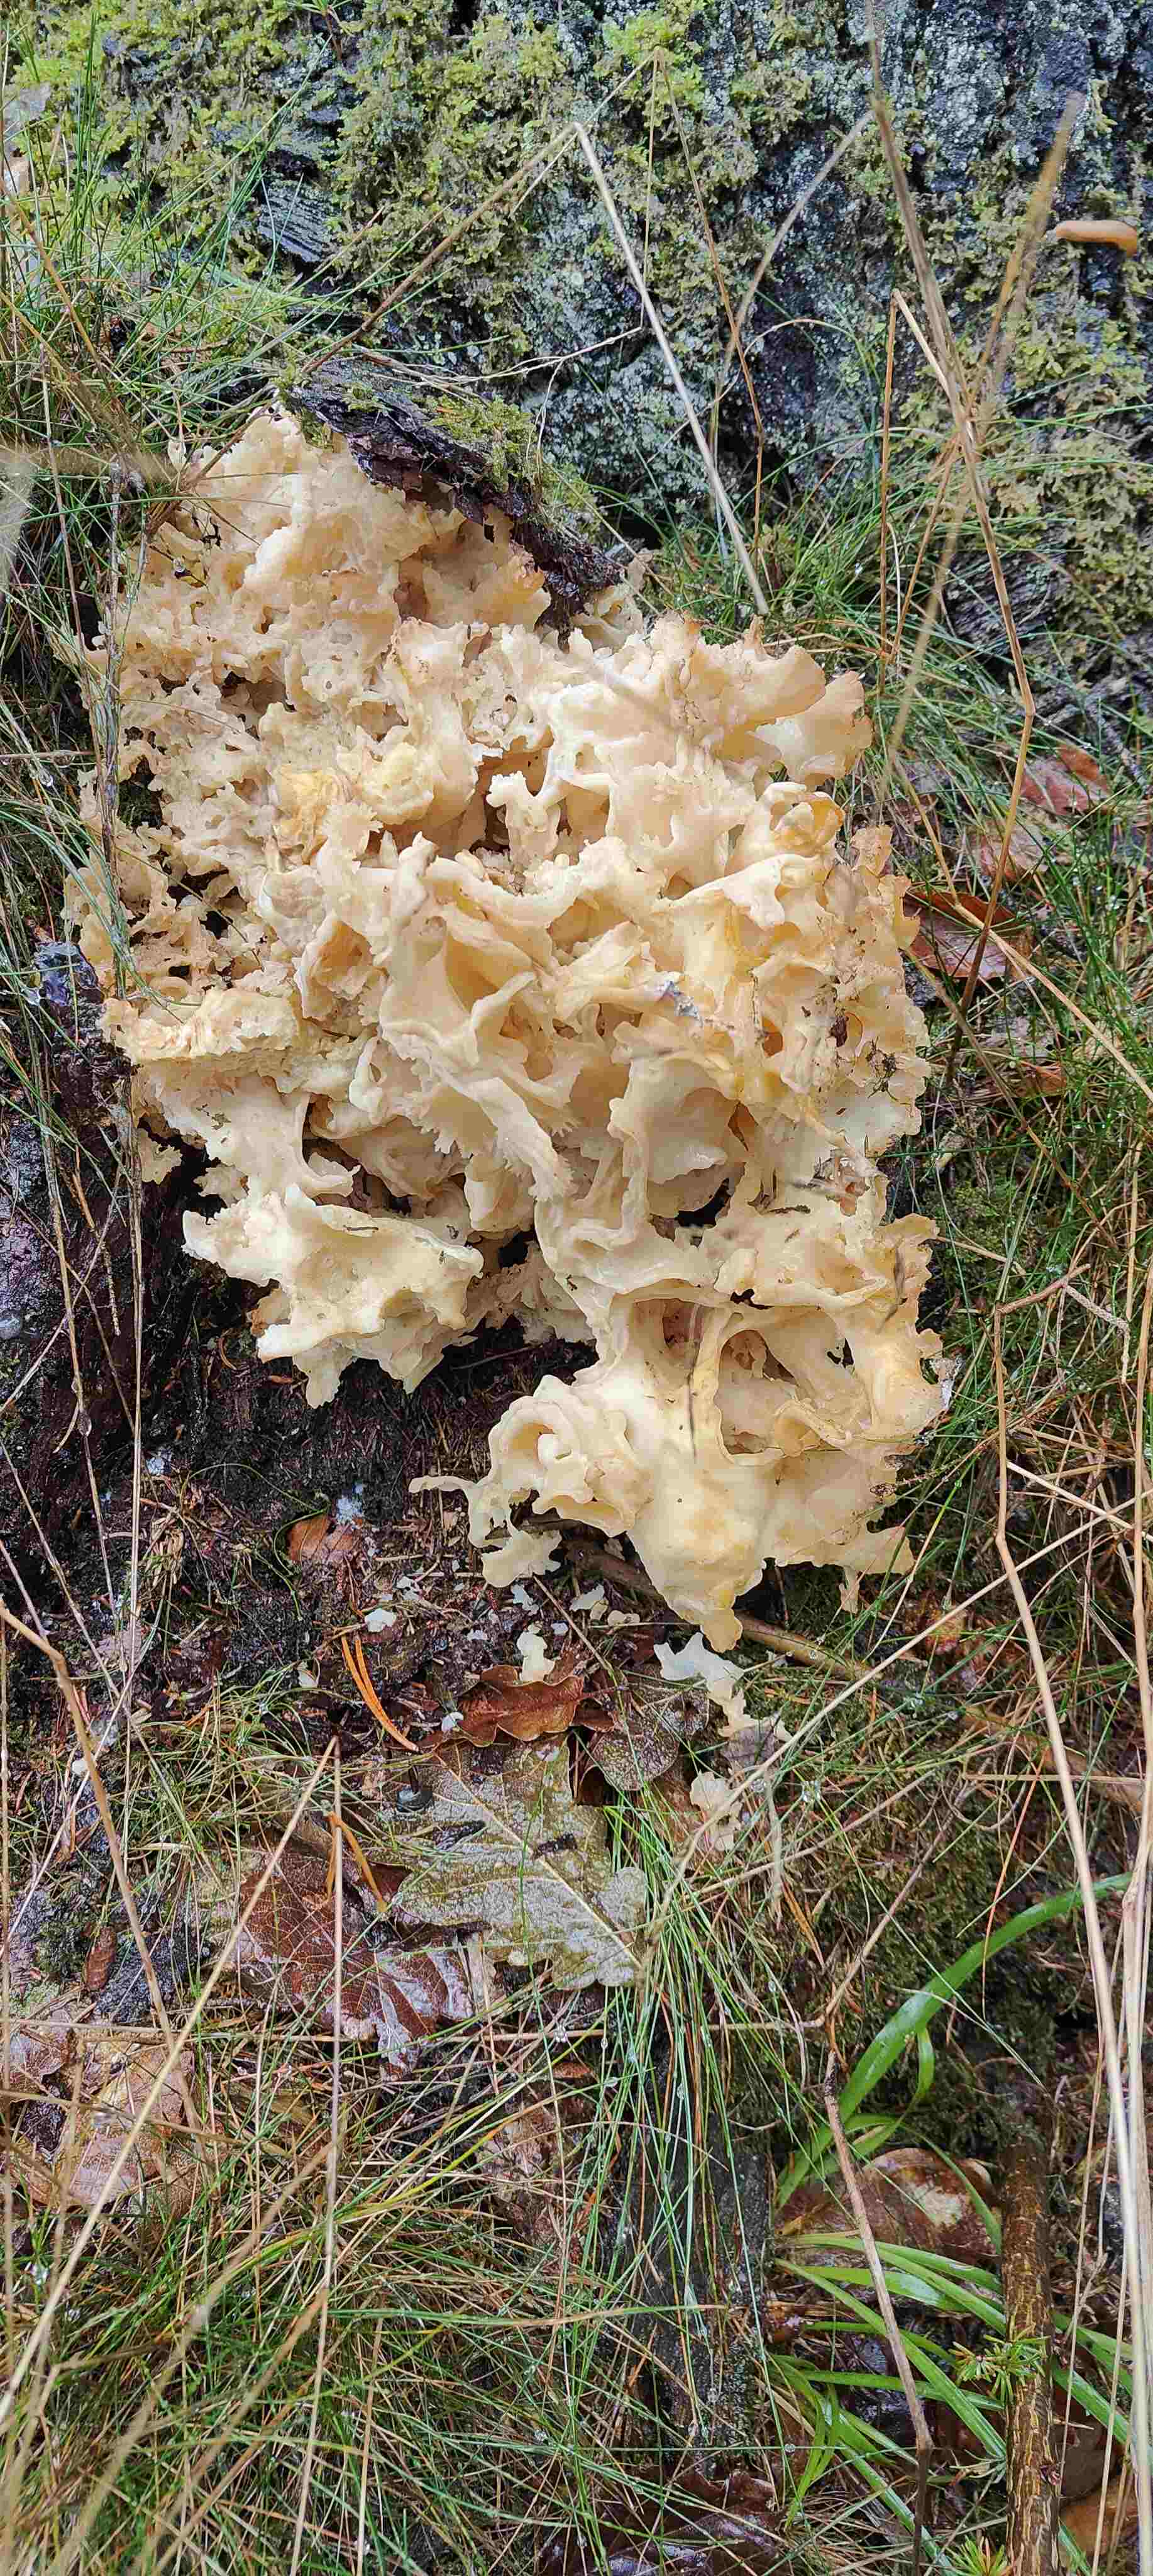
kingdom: Fungi
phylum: Basidiomycota
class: Agaricomycetes
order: Polyporales
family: Sparassidaceae
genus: Sparassis
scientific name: Sparassis crispa
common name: kruset blomkålssvamp
